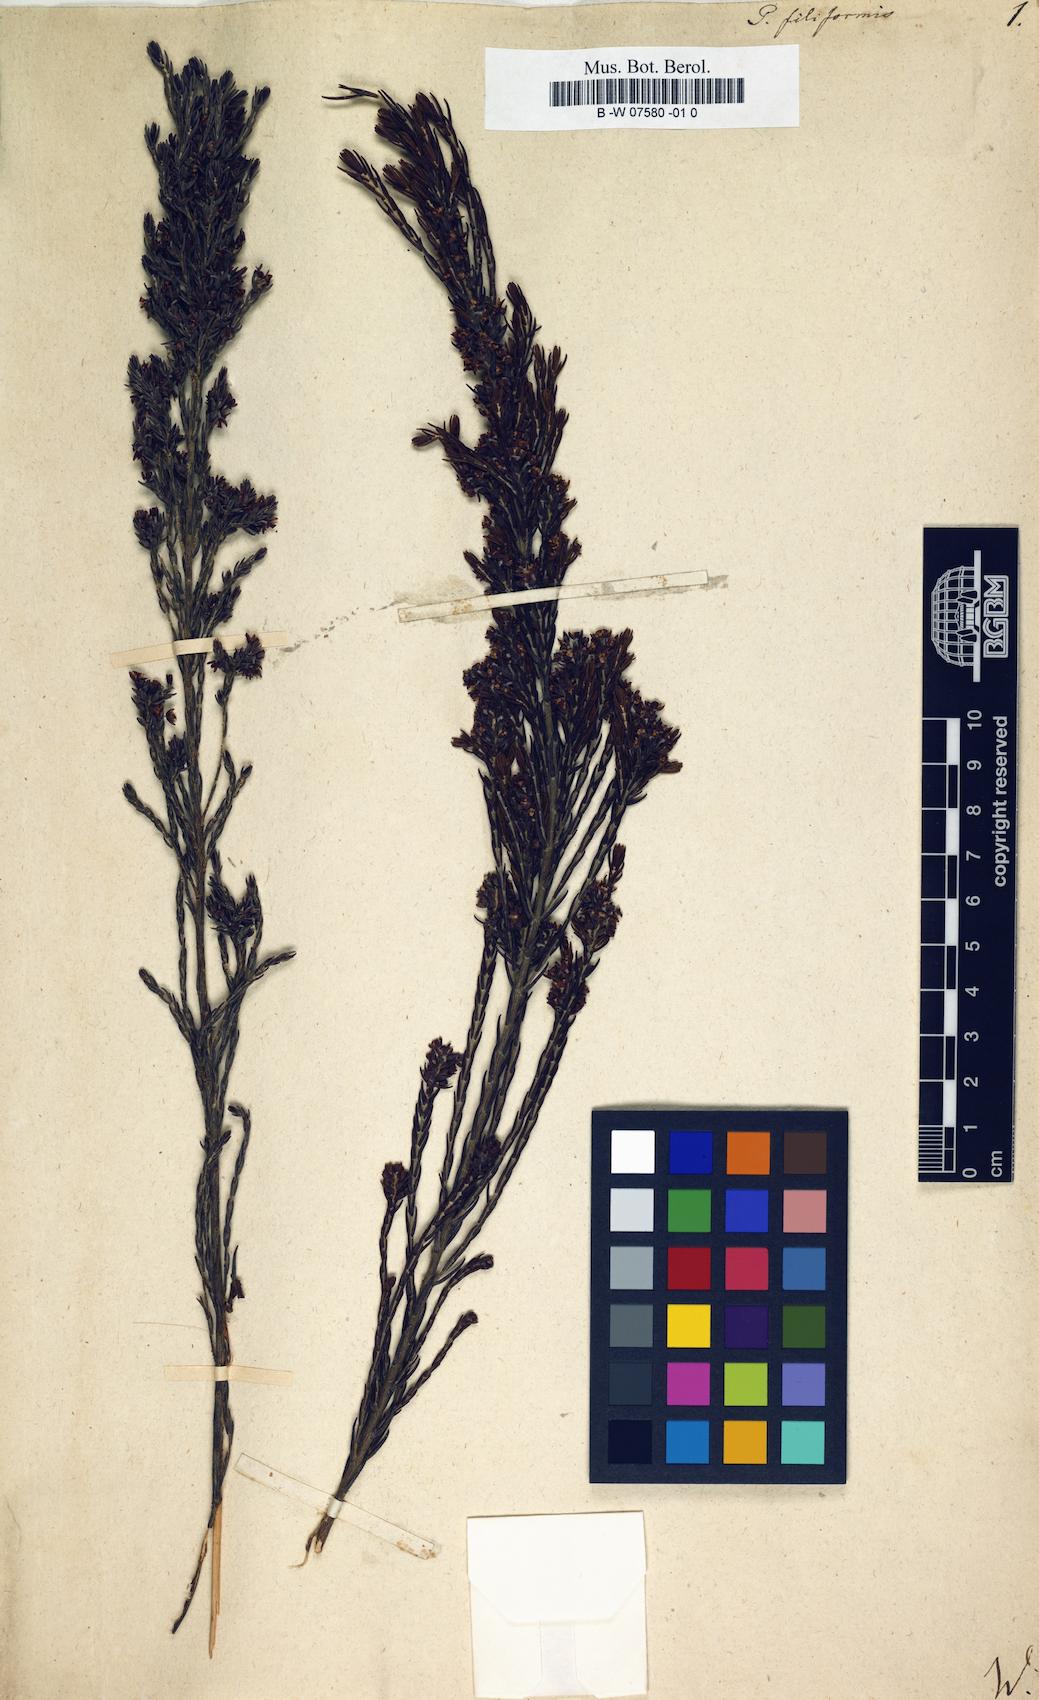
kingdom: Plantae
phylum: Tracheophyta
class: Magnoliopsida
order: Malvales
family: Thymelaeaceae
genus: Passerina
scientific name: Passerina filiformis
